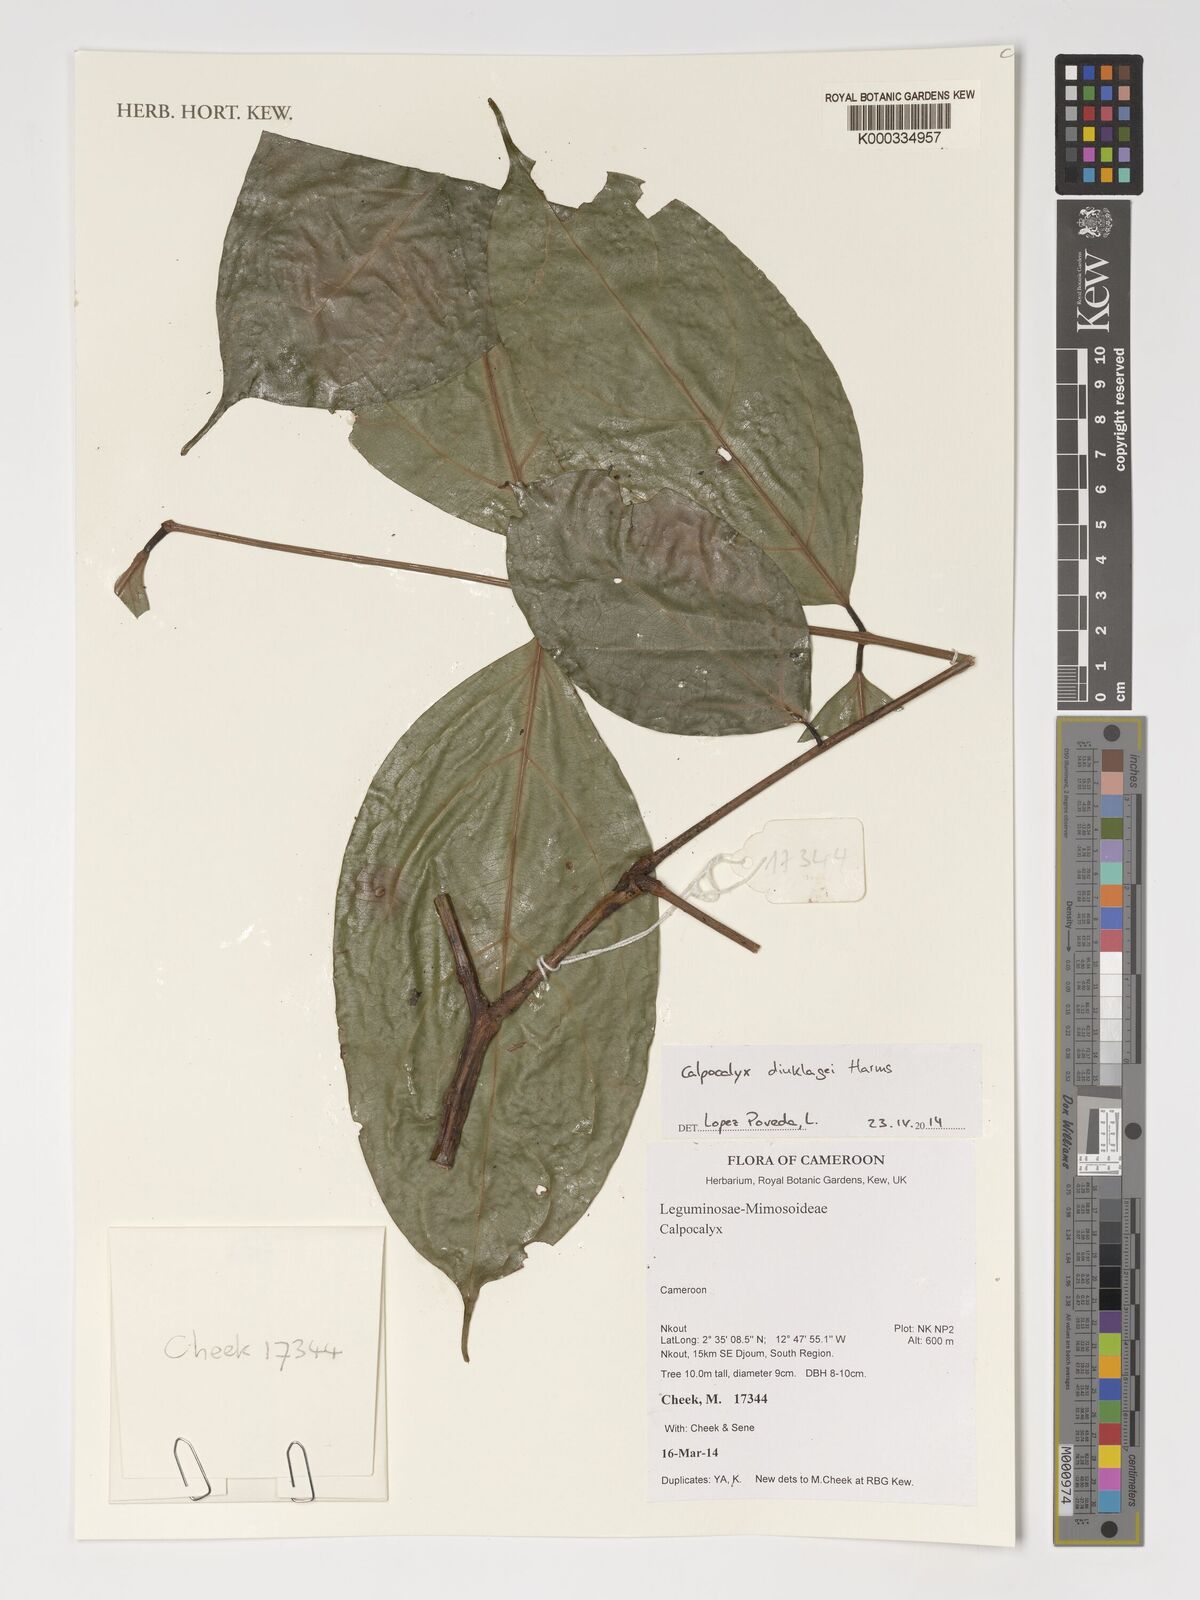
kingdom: Plantae
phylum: Tracheophyta
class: Magnoliopsida
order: Fabales
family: Fabaceae
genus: Calpocalyx
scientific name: Calpocalyx dinklagei
